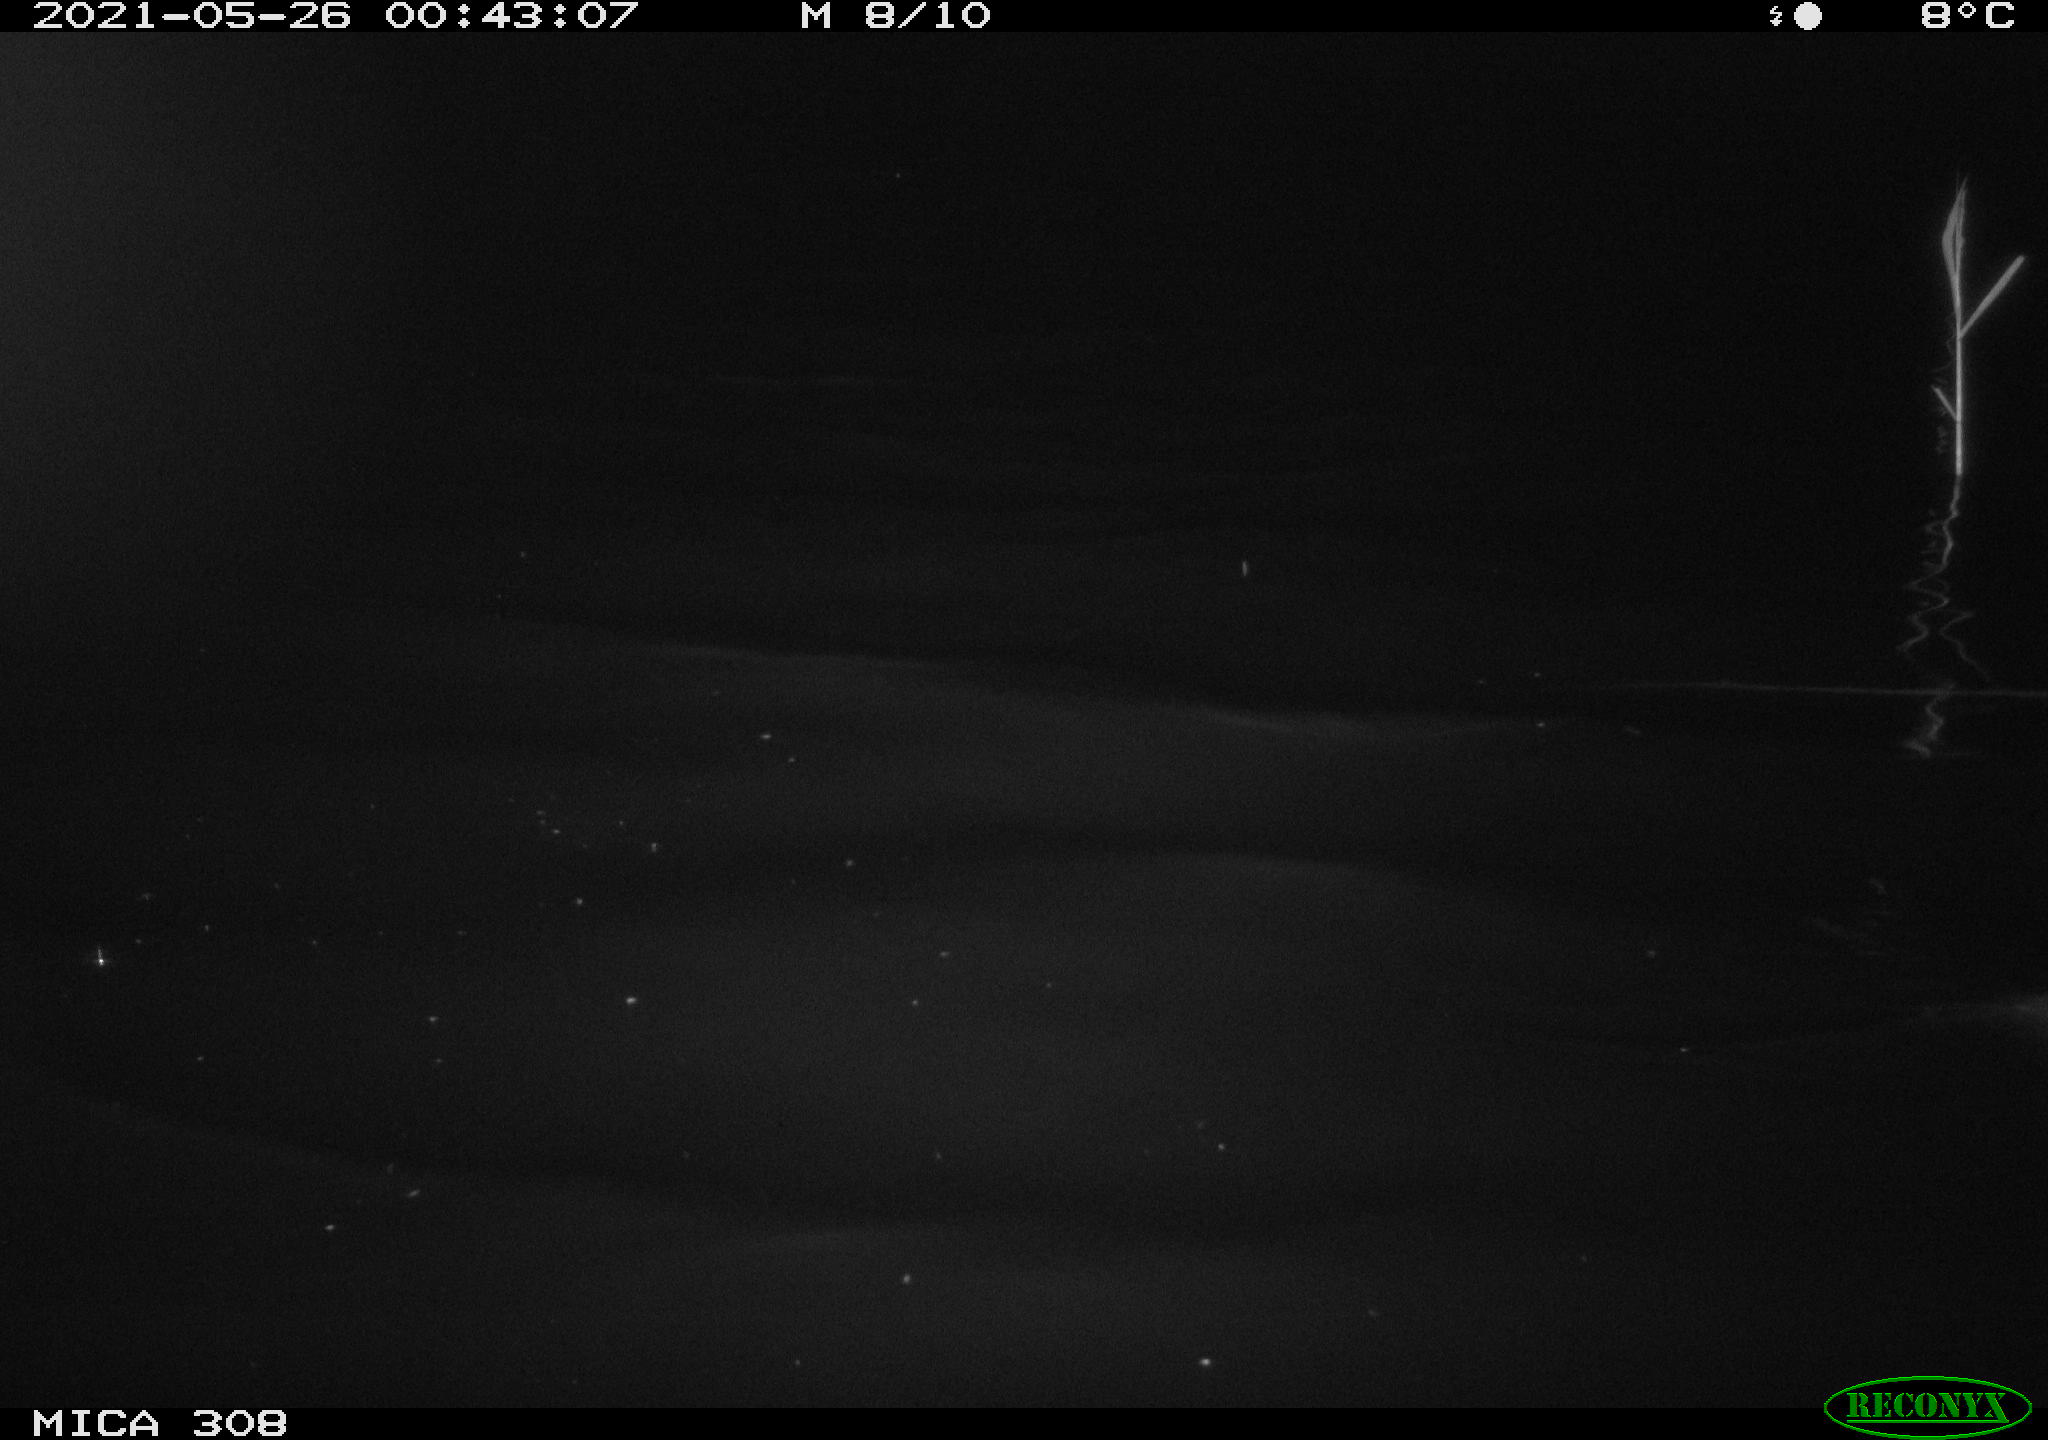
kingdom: Animalia
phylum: Chordata
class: Mammalia
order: Rodentia
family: Muridae
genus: Rattus
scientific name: Rattus norvegicus
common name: Brown rat
